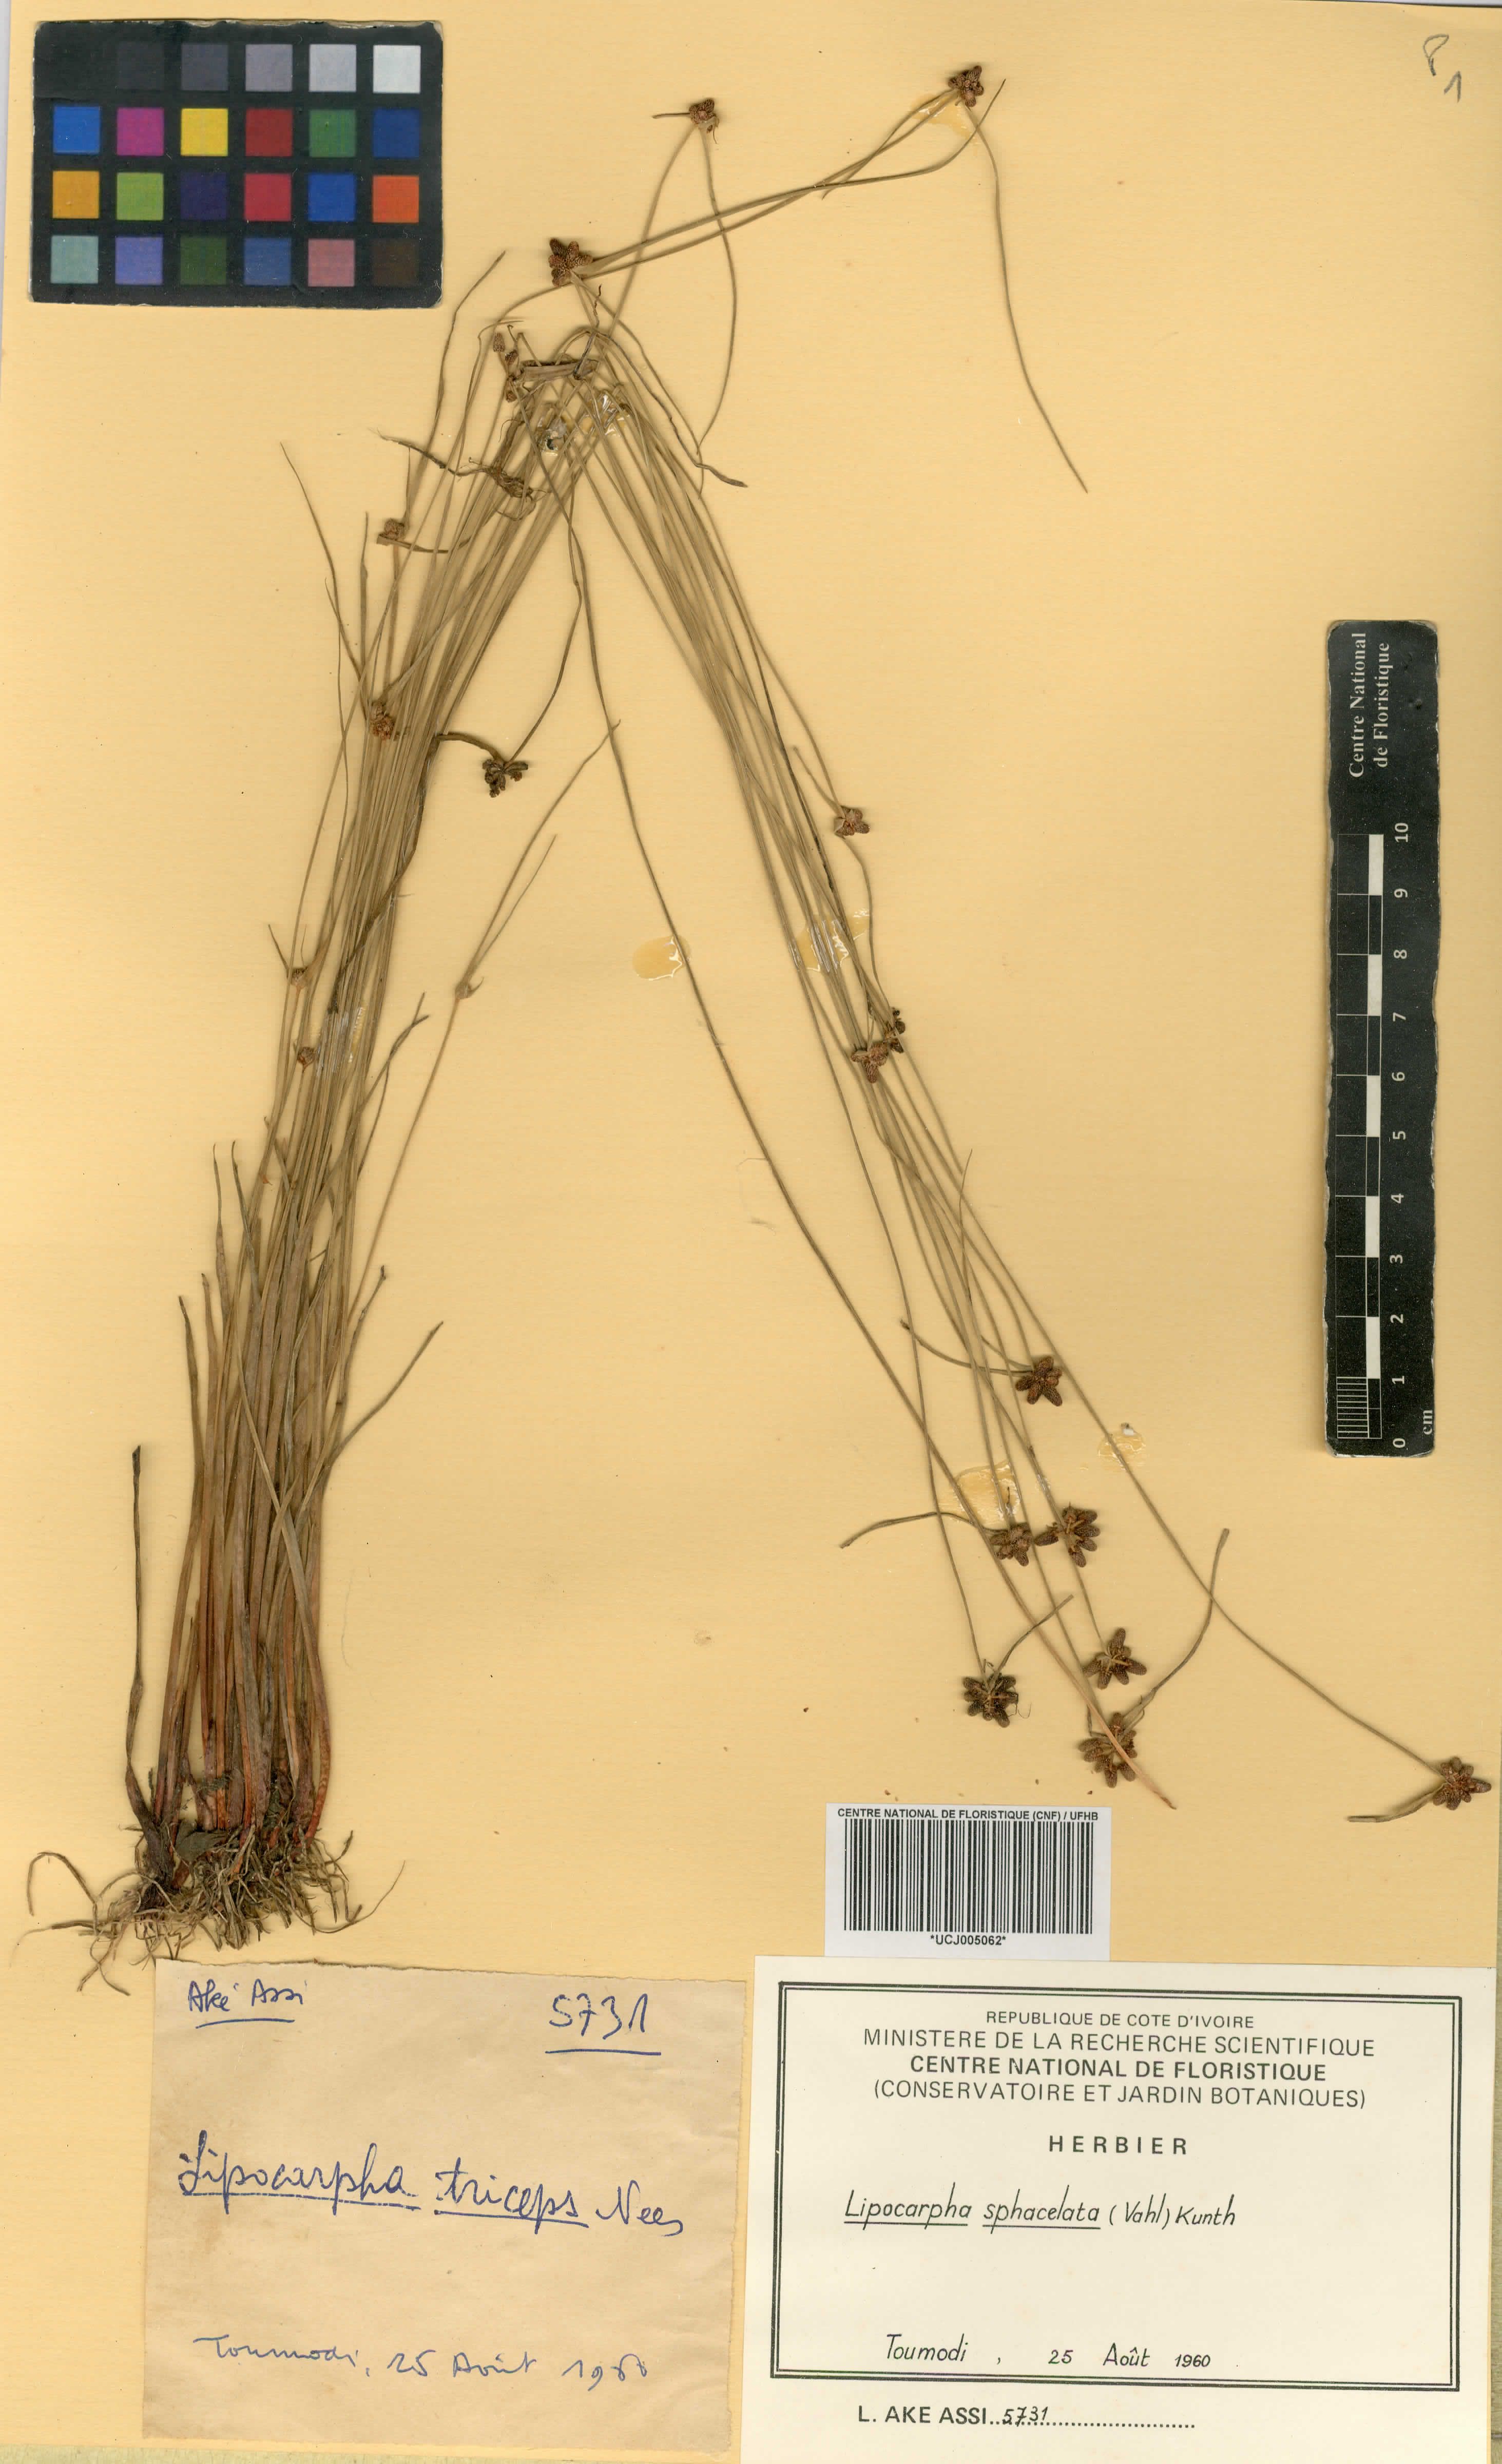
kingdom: Plantae
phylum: Tracheophyta
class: Liliopsida
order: Poales
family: Cyperaceae
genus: Cyperus
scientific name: Cyperus ceylanicus
